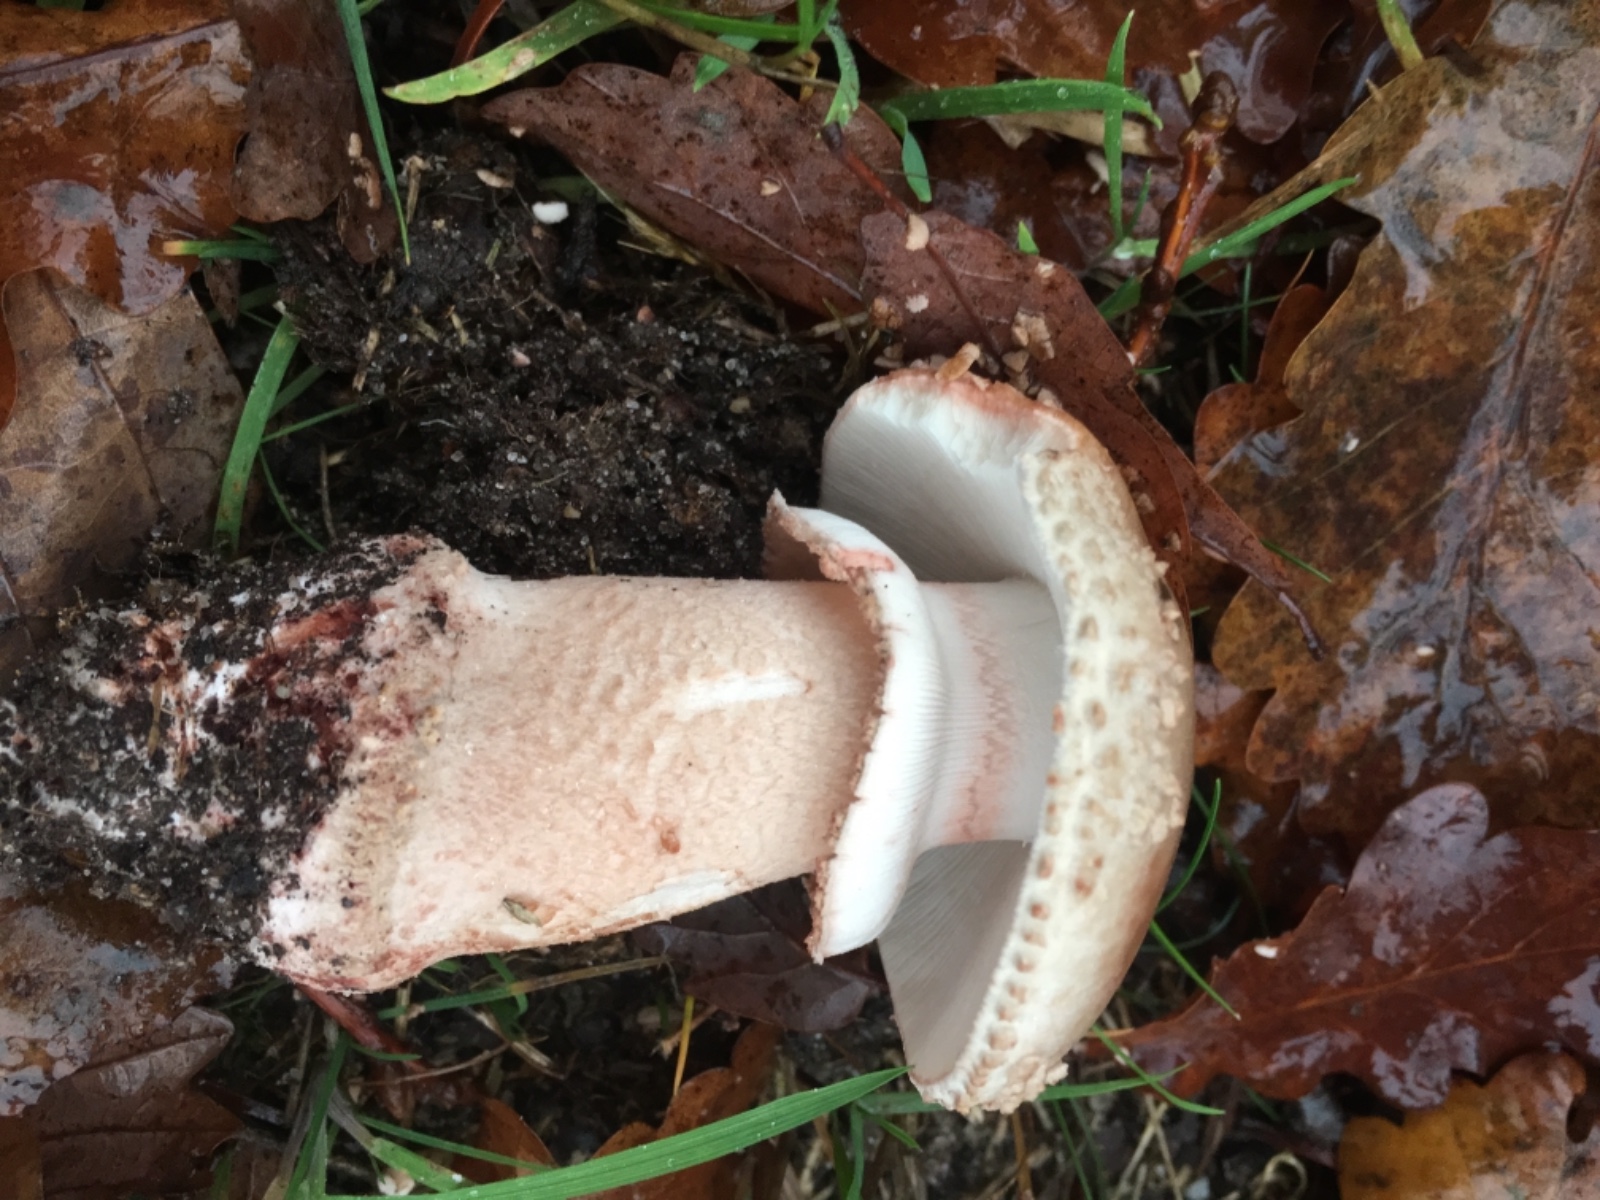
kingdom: Fungi
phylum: Basidiomycota
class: Agaricomycetes
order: Agaricales
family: Amanitaceae
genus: Amanita
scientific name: Amanita rubescens
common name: rødmende fluesvamp
